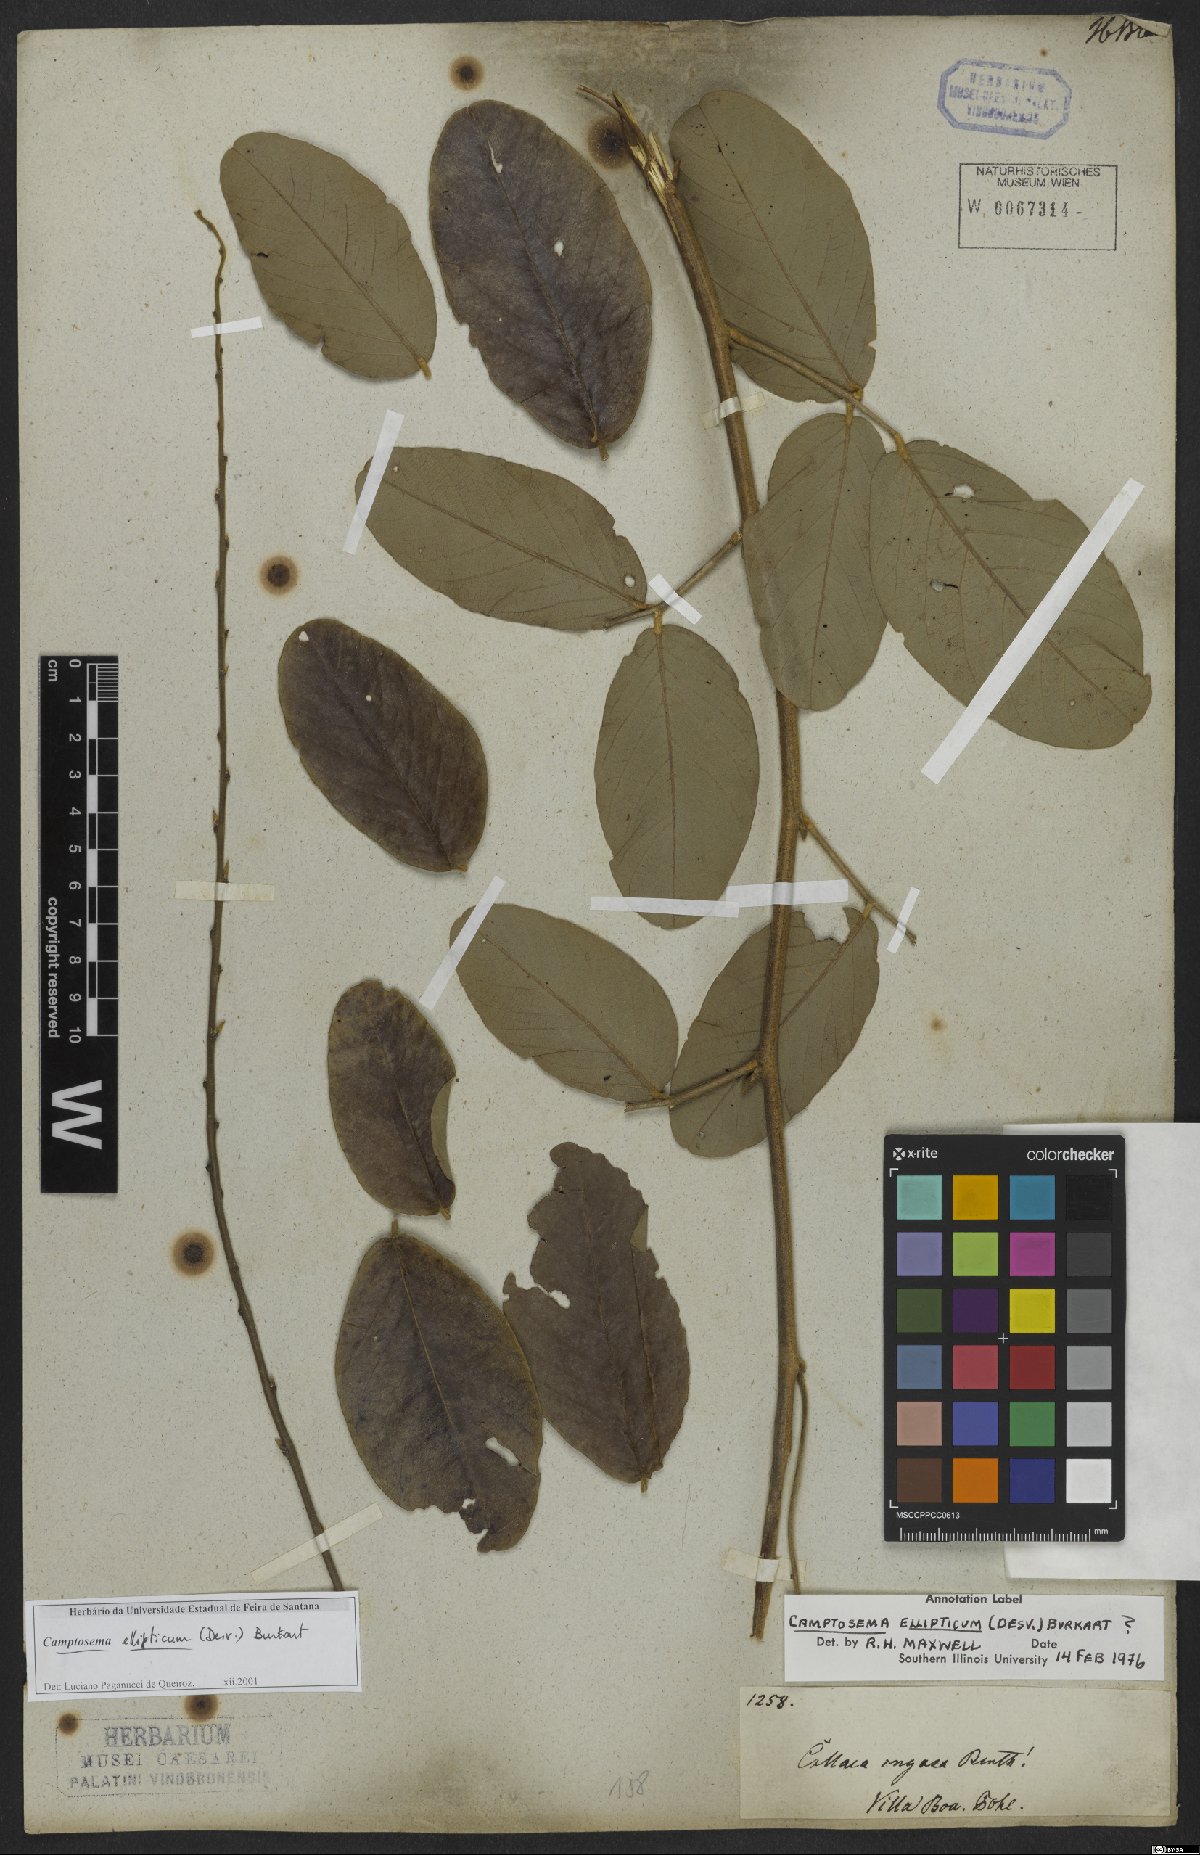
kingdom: Plantae
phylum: Tracheophyta
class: Magnoliopsida
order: Fabales
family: Fabaceae
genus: Cerradicola
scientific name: Cerradicola elliptica
